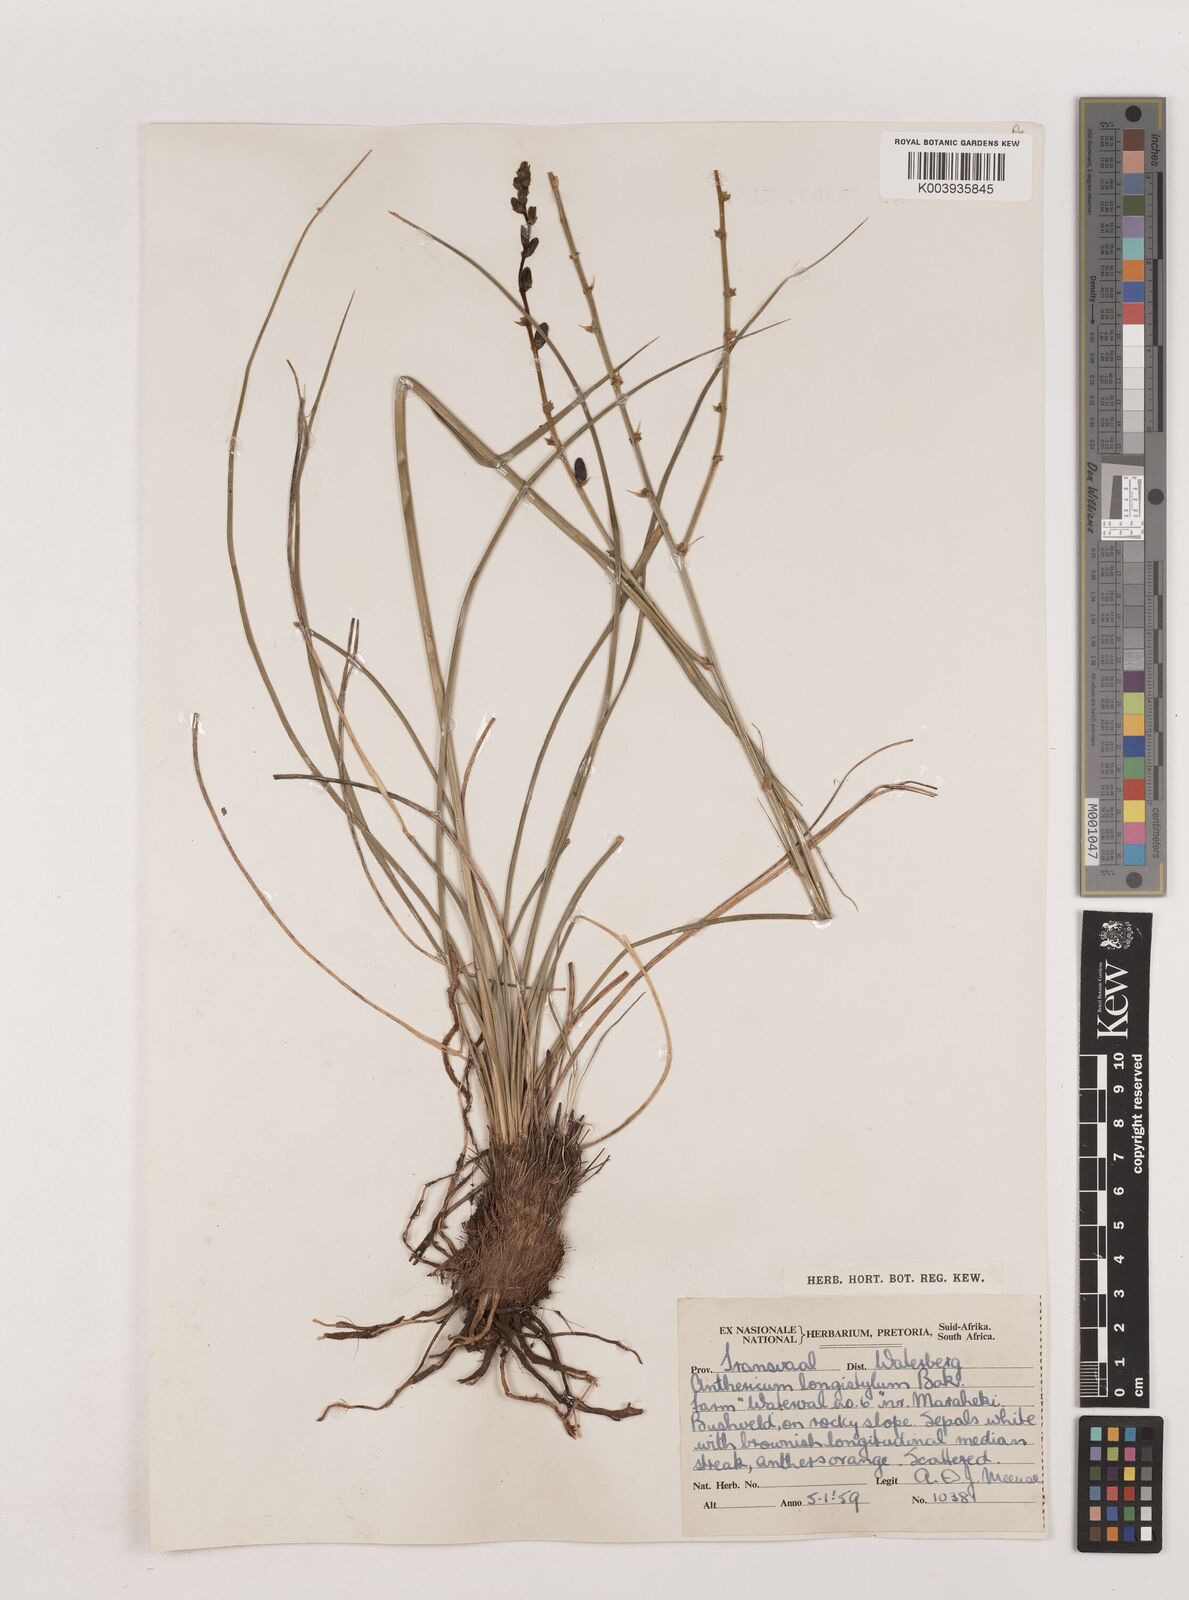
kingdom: Plantae
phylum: Tracheophyta
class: Liliopsida
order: Asparagales
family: Asparagaceae
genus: Chlorophytum
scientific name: Chlorophytum recurvifolium
